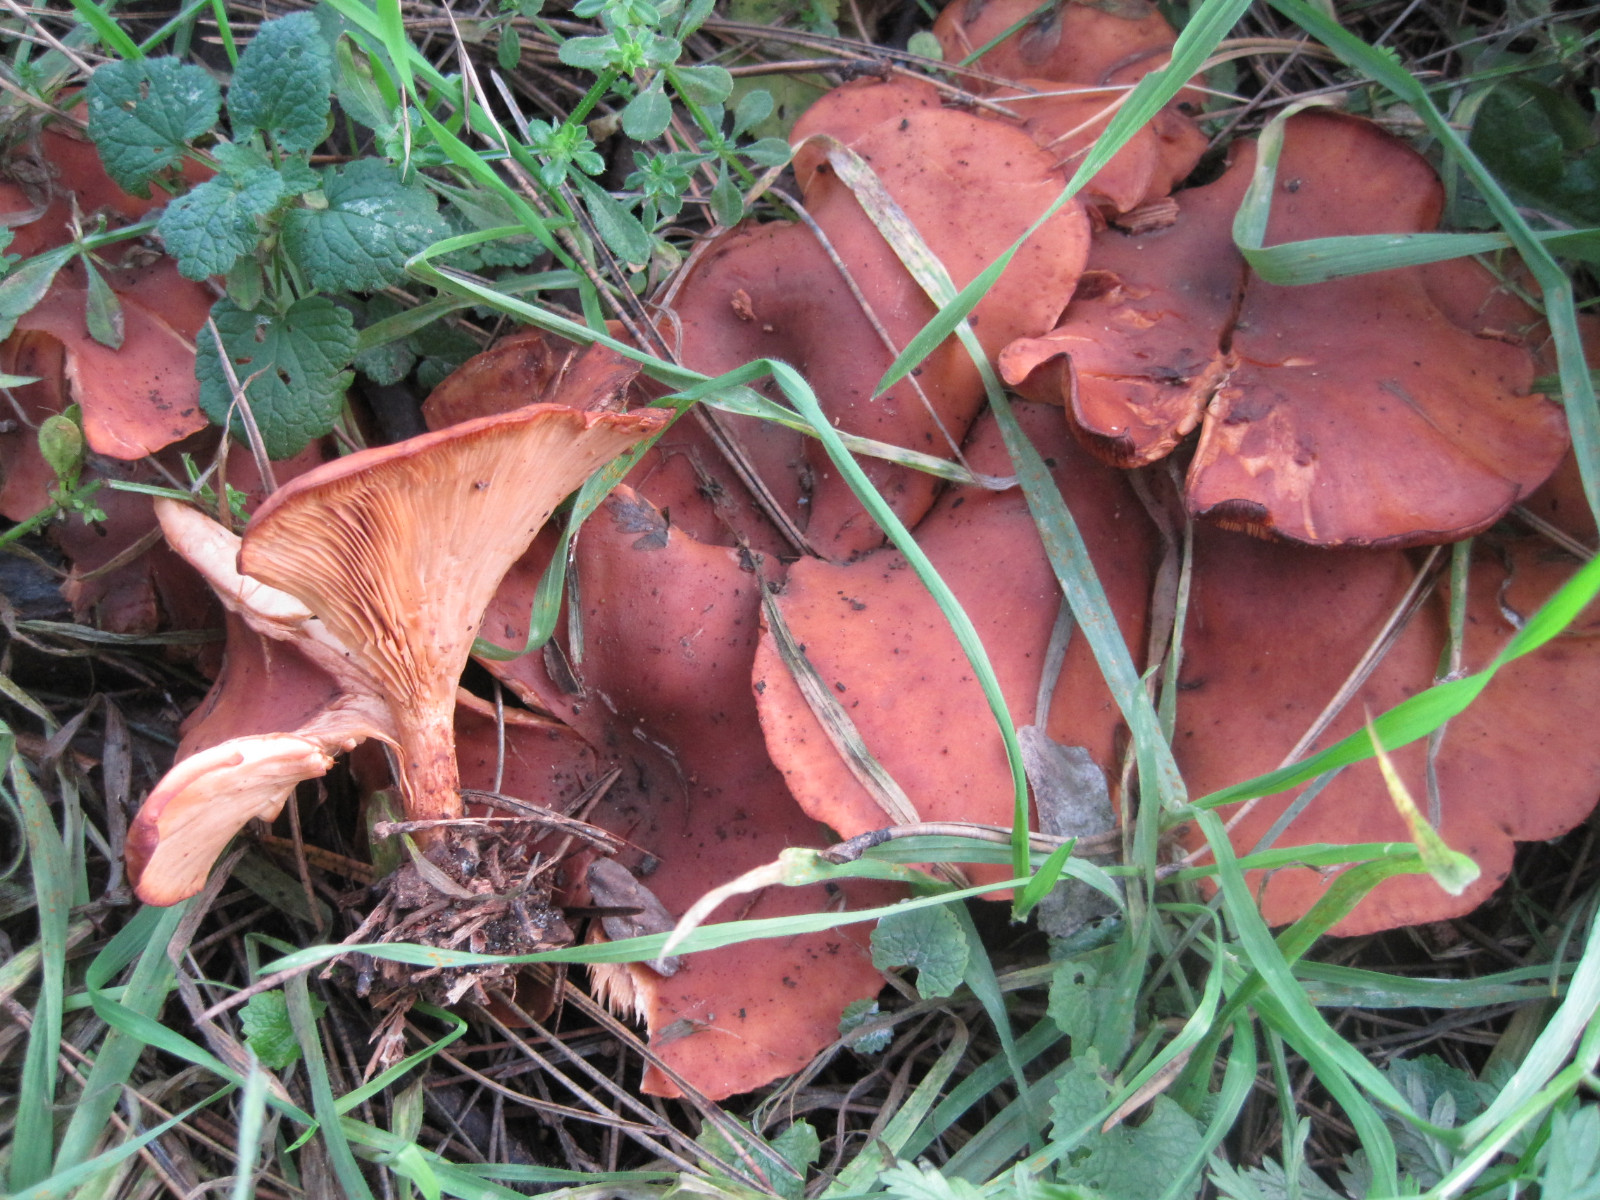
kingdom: Fungi
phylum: Basidiomycota
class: Agaricomycetes
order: Agaricales
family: Tricholomataceae
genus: Paralepista
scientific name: Paralepista flaccida
